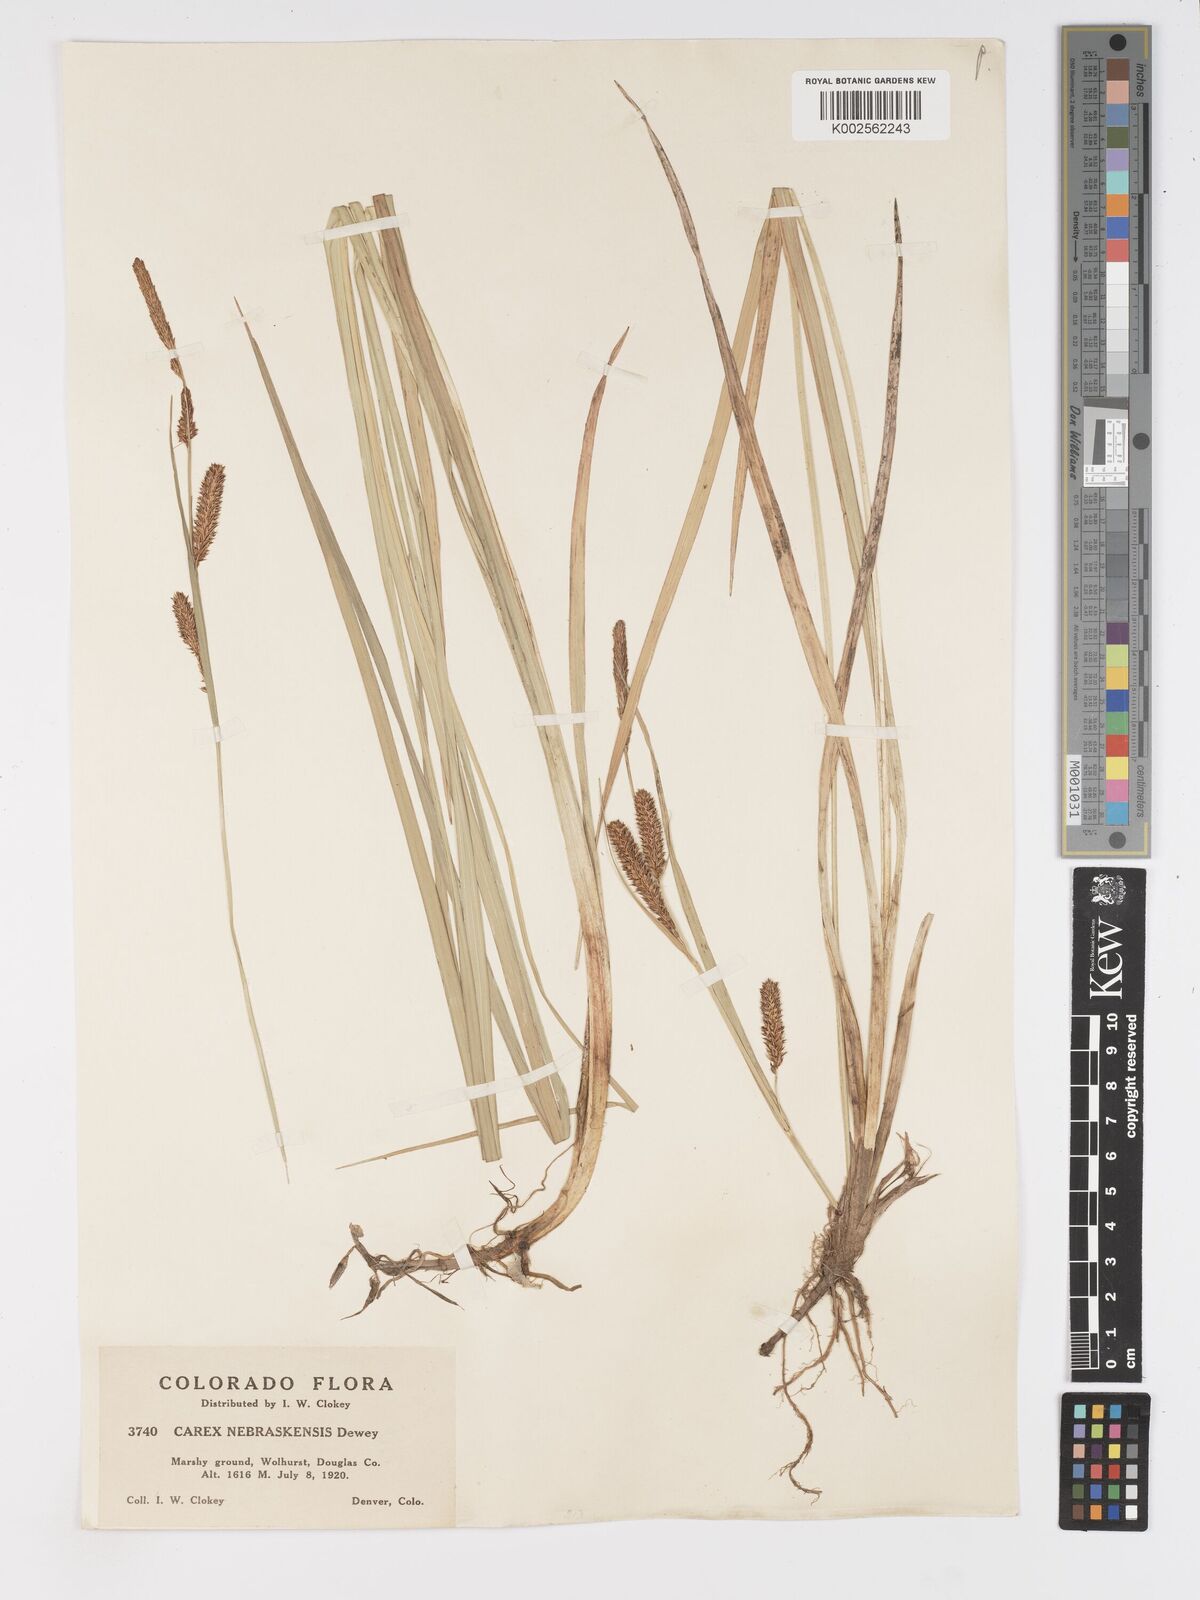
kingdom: Plantae
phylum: Tracheophyta
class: Liliopsida
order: Poales
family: Cyperaceae
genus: Carex
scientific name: Carex nebrascensis
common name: Nebraska sedge
